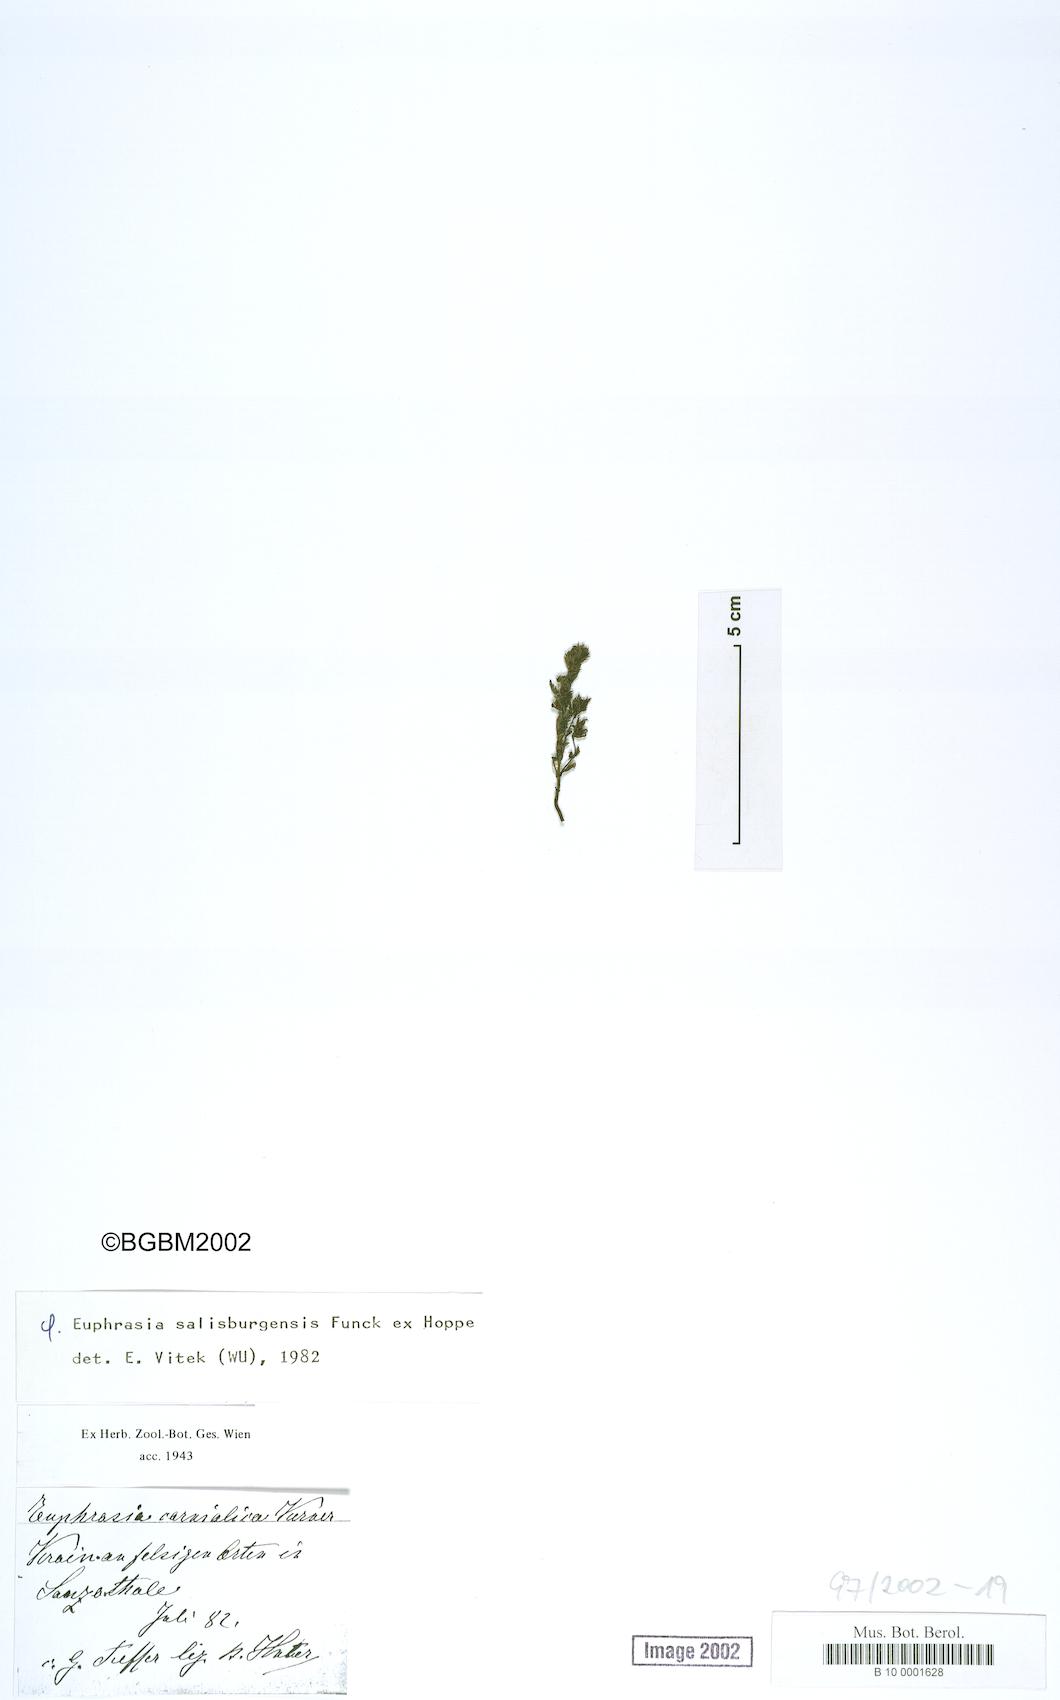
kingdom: Plantae
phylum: Tracheophyta
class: Magnoliopsida
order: Lamiales
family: Orobanchaceae
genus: Euphrasia
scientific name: Euphrasia cuspidata
